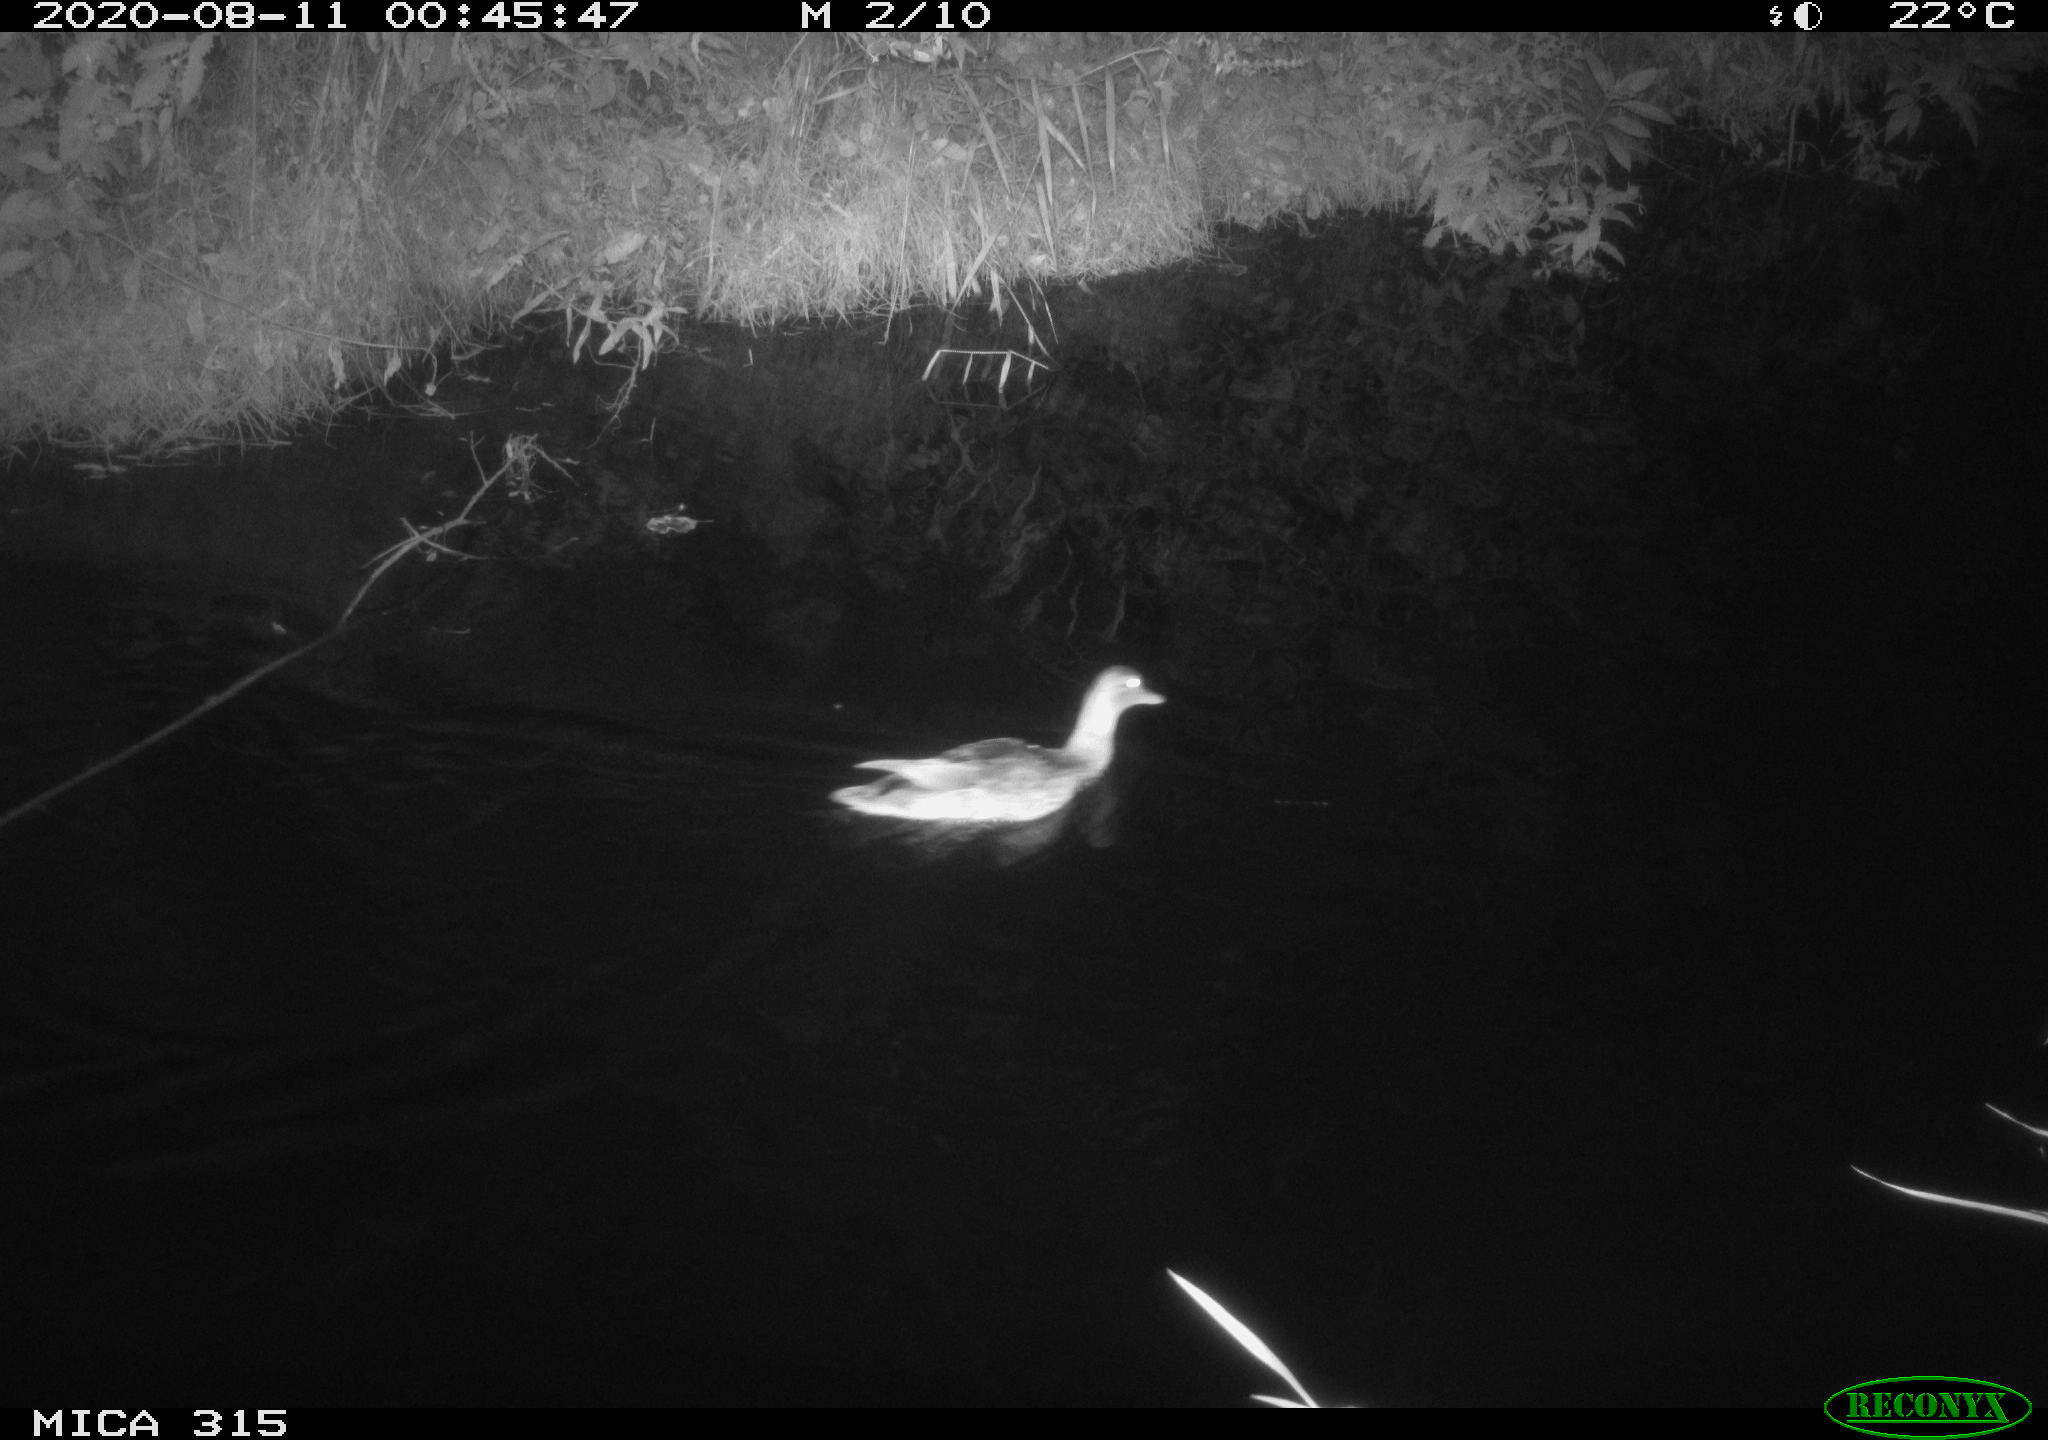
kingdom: Animalia
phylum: Chordata
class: Aves
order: Anseriformes
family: Anatidae
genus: Anas
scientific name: Anas platyrhynchos
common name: Mallard
